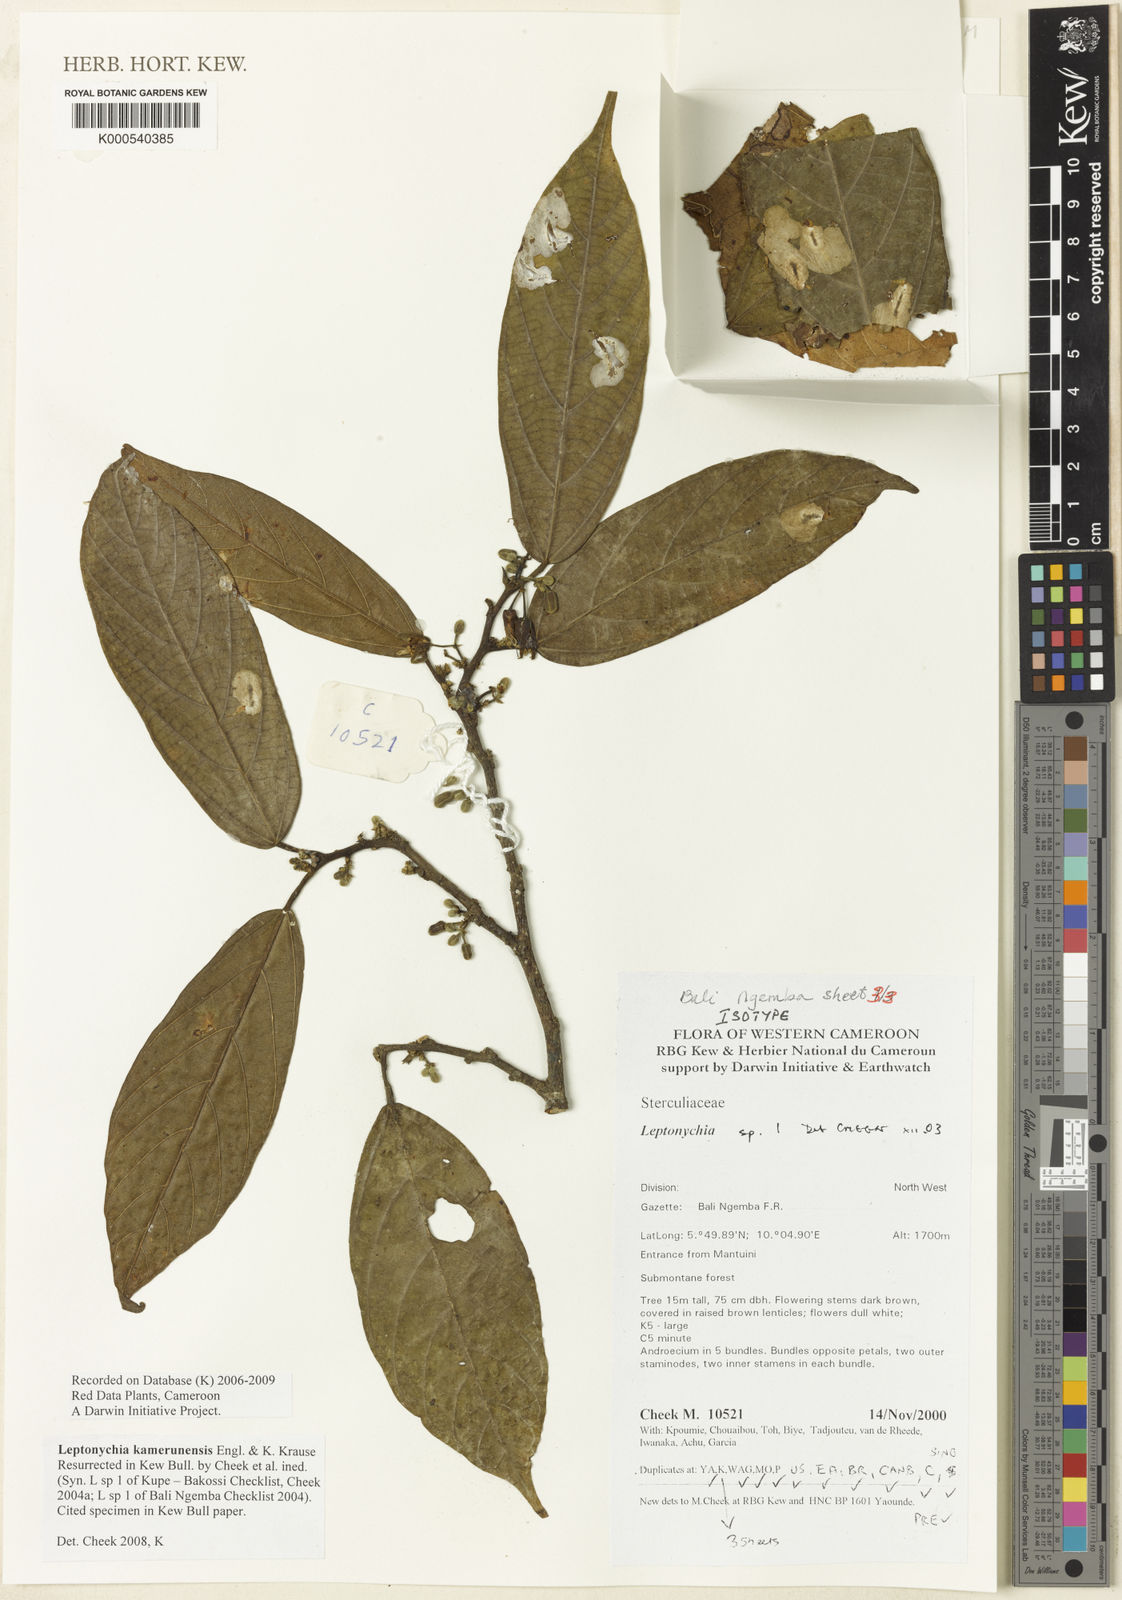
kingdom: Plantae
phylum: Tracheophyta
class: Magnoliopsida
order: Malvales
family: Malvaceae
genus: Leptonychia
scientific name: Leptonychia kamerunensis
